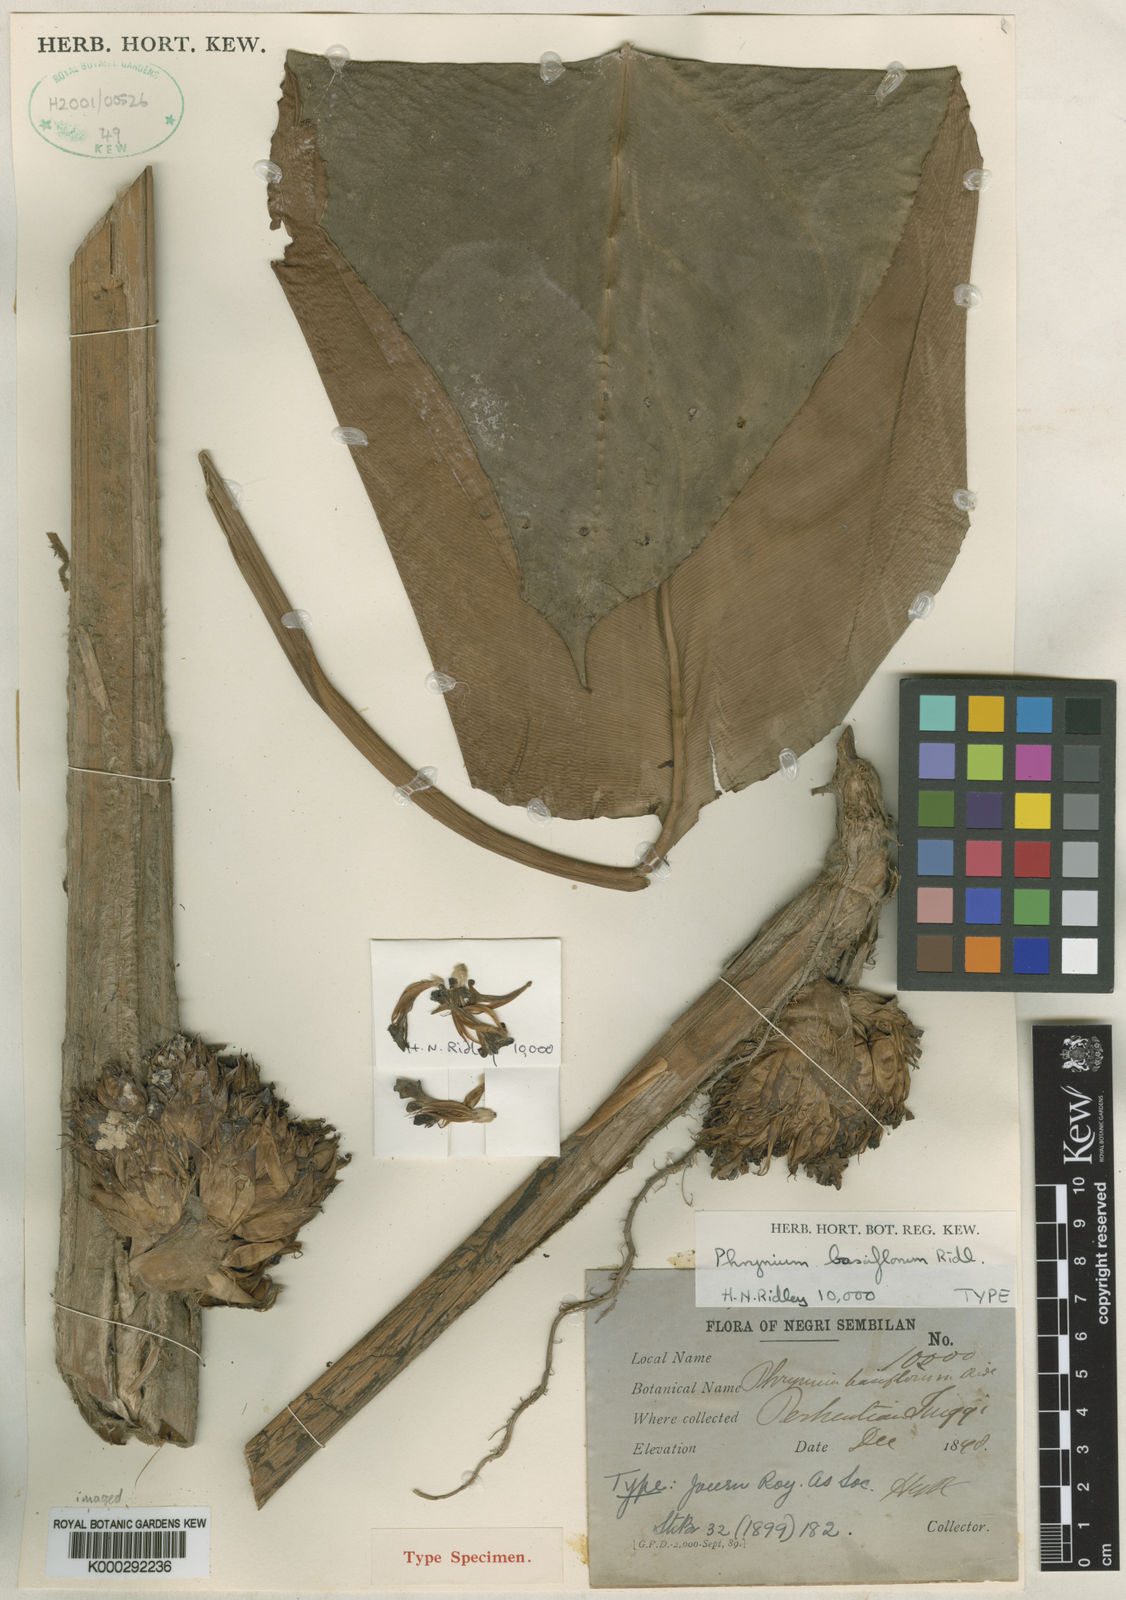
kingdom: Plantae
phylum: Tracheophyta
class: Liliopsida
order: Zingiberales
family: Marantaceae
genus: Phrynium
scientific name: Phrynium villosulum
